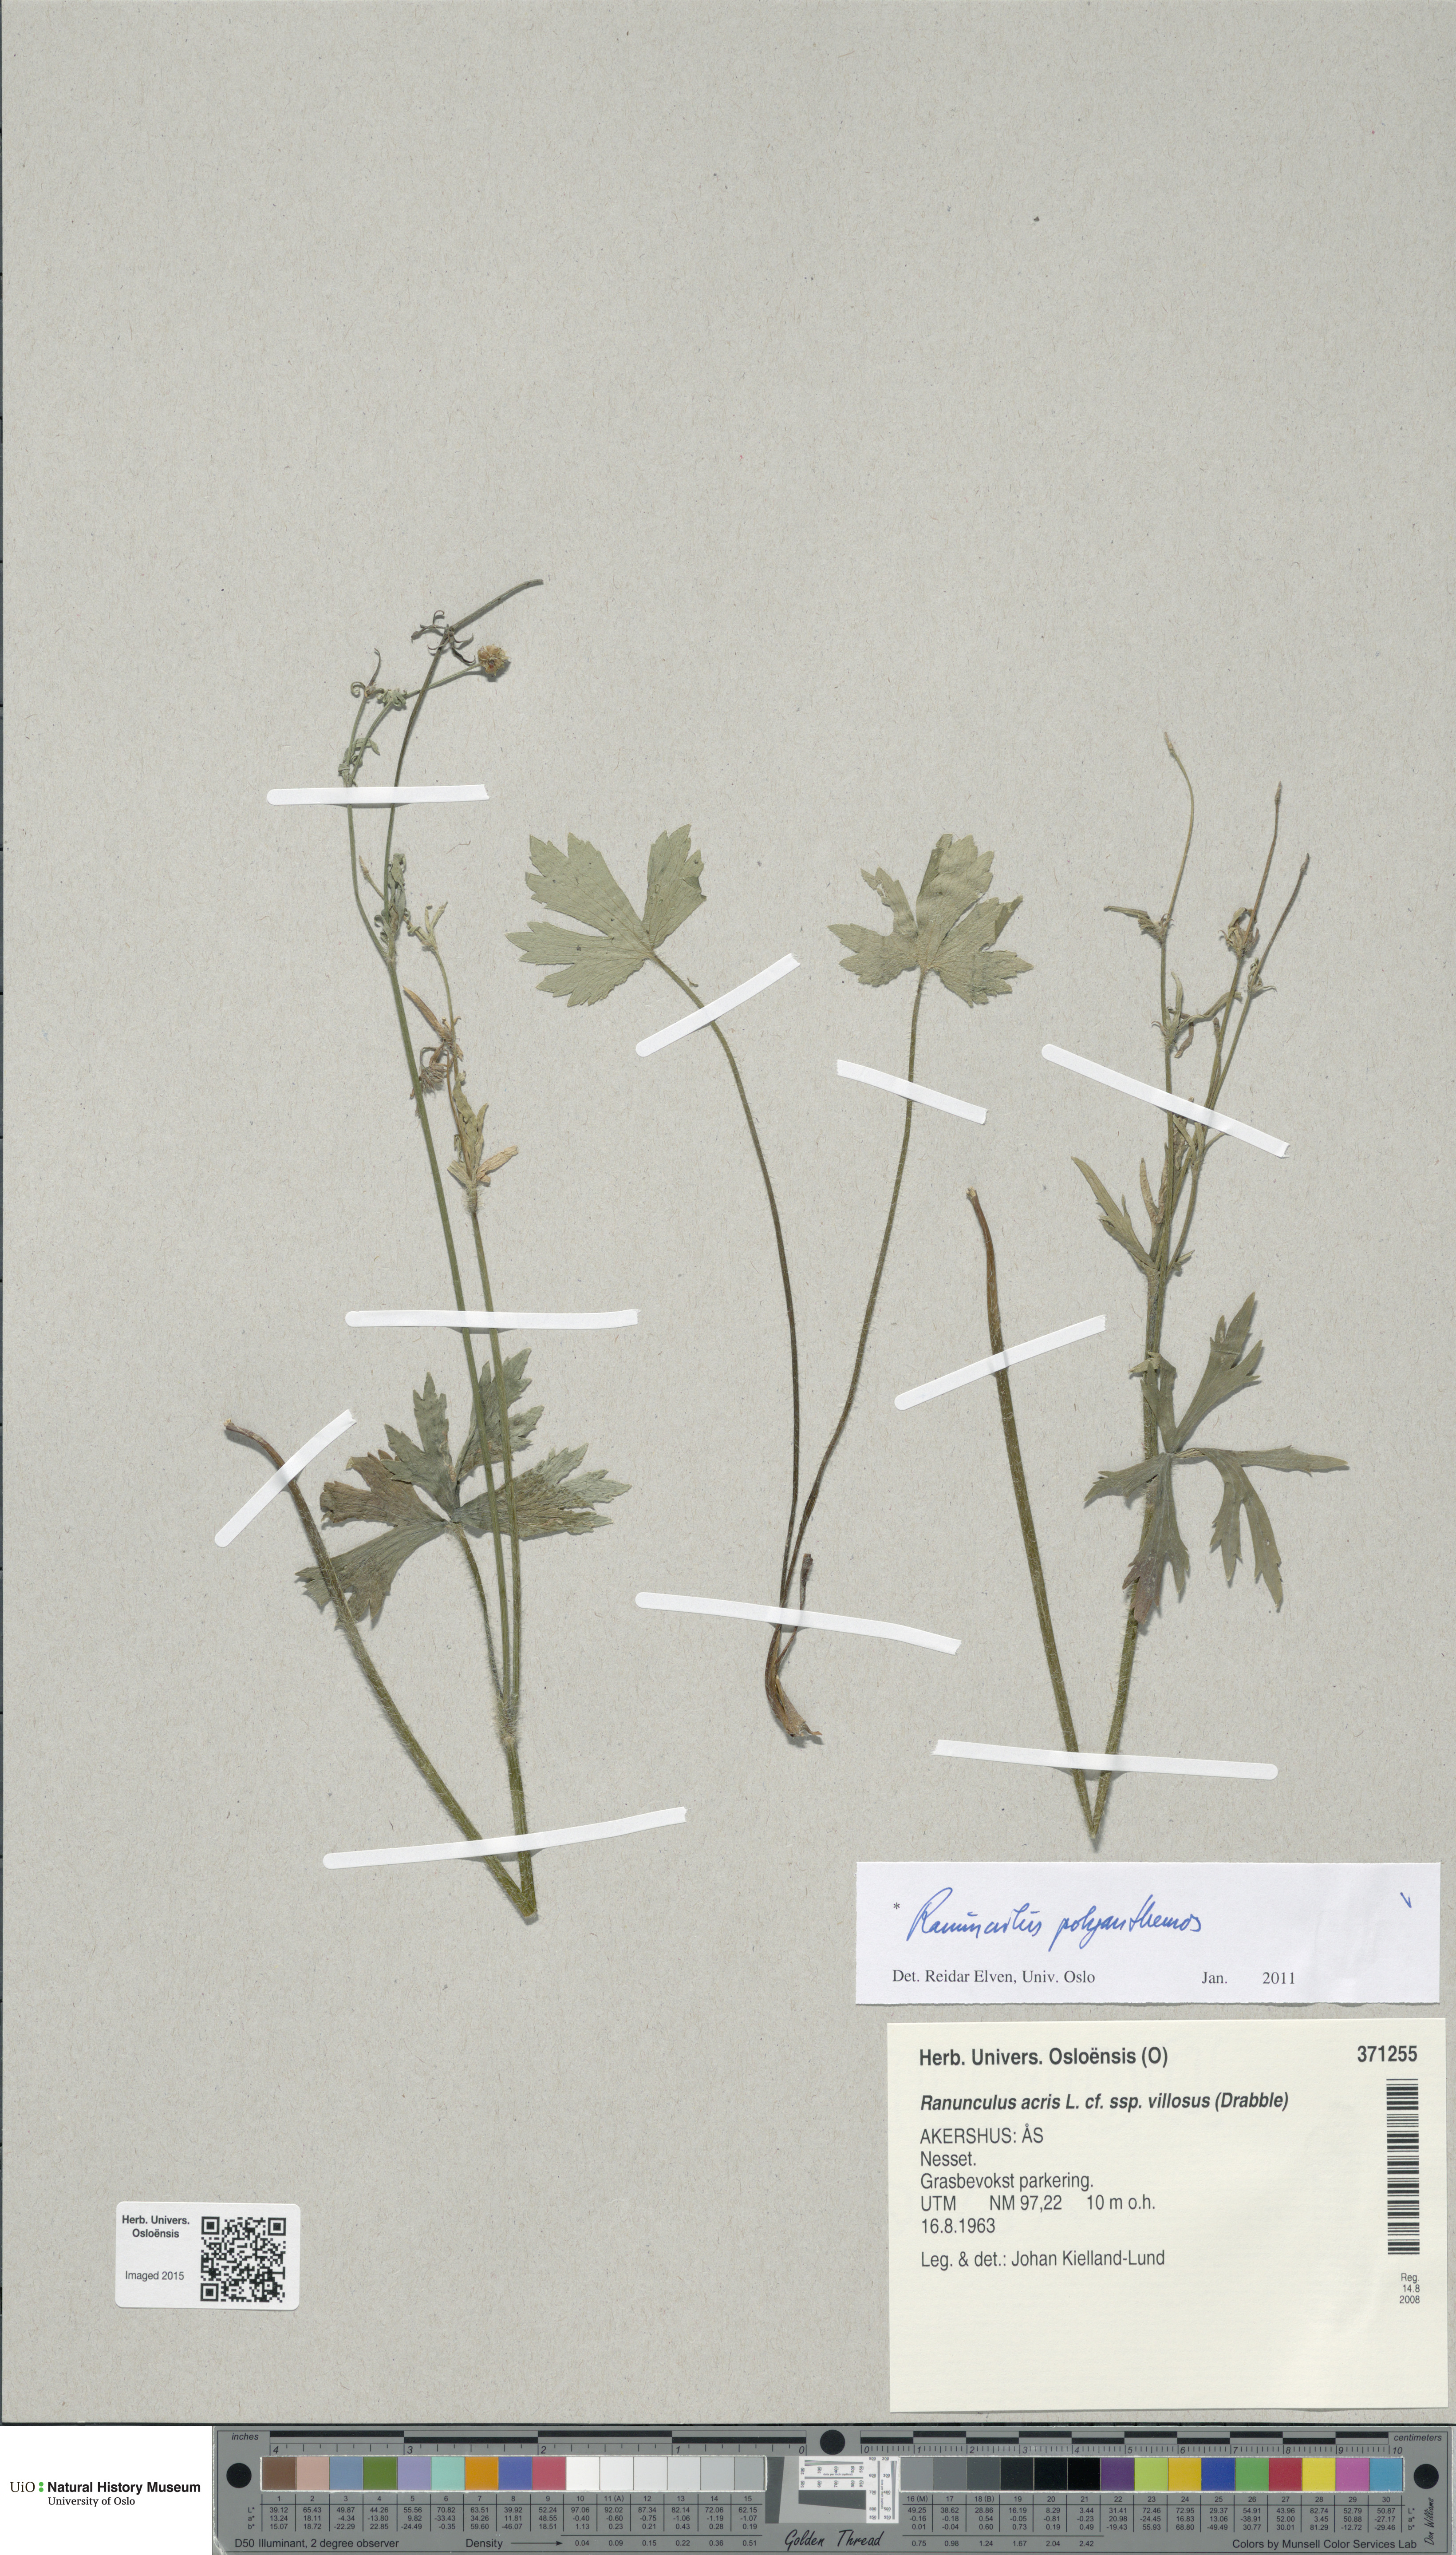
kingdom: Plantae
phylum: Tracheophyta
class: Magnoliopsida
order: Ranunculales
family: Ranunculaceae
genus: Ranunculus
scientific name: Ranunculus polyanthemos
